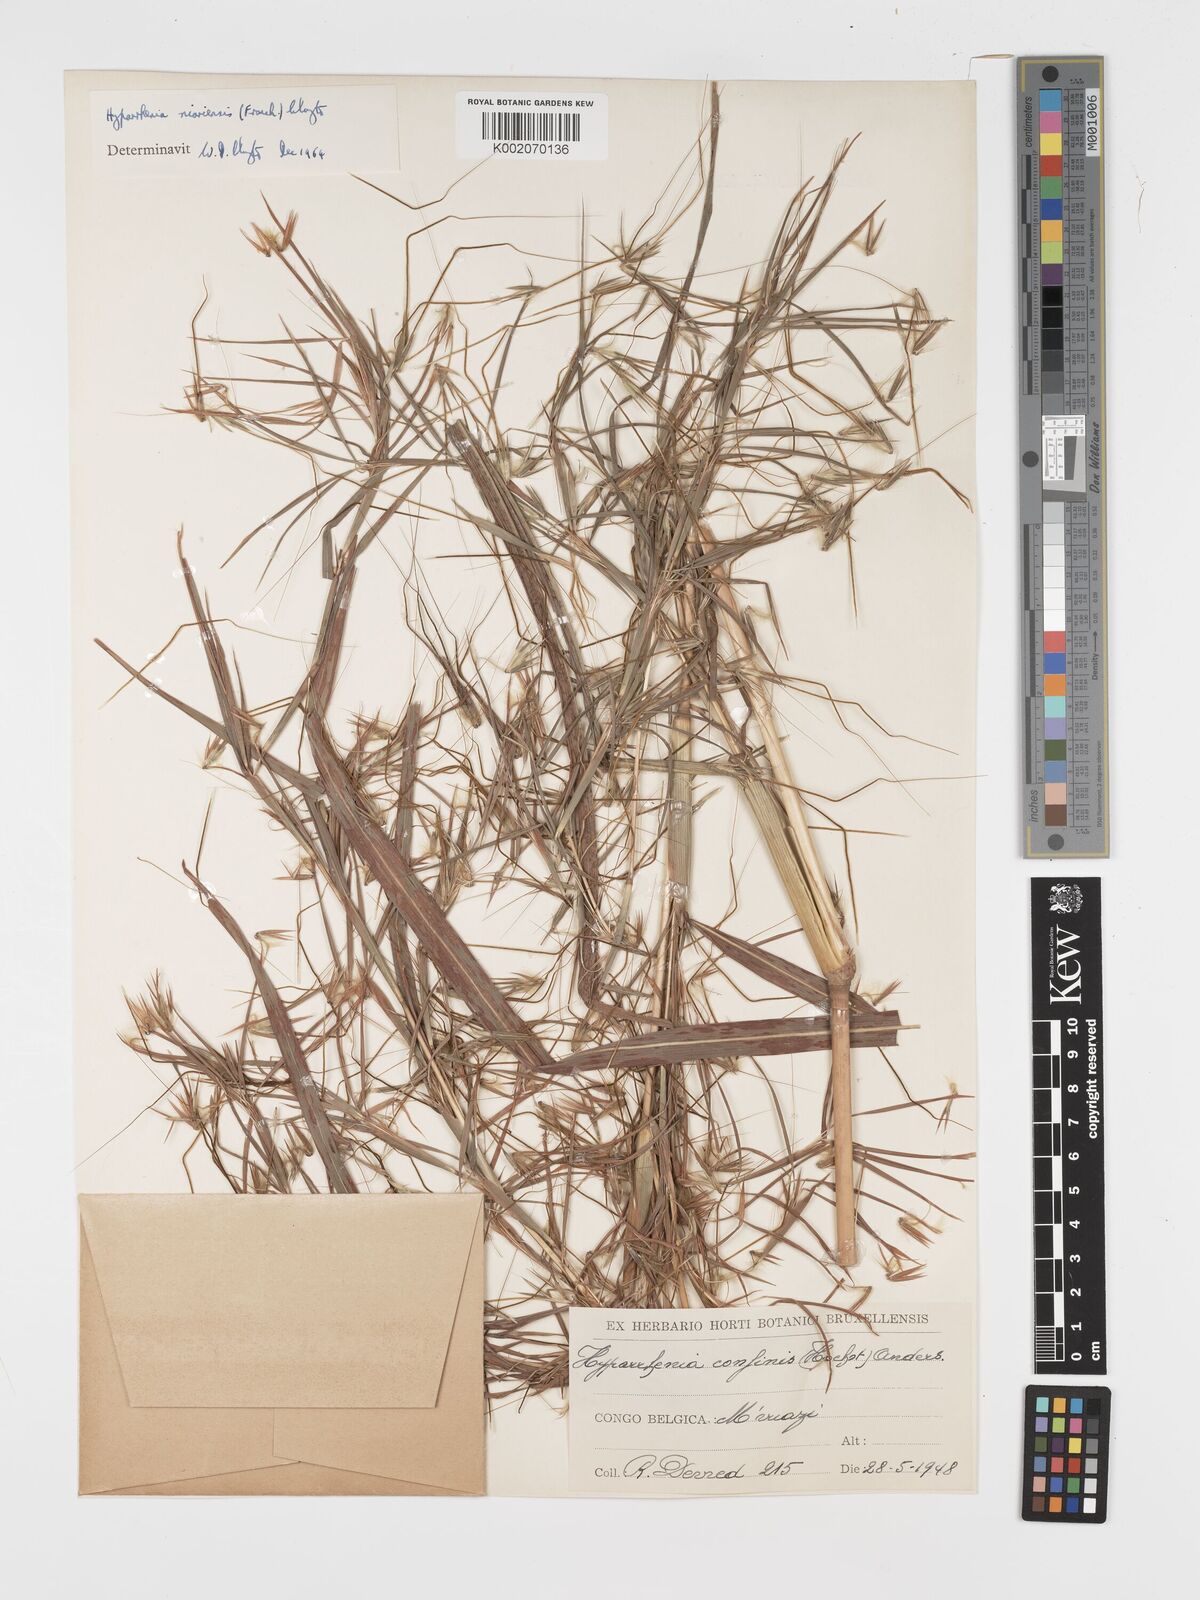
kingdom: Plantae
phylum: Tracheophyta
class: Liliopsida
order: Poales
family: Poaceae
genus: Hyparrhenia
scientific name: Hyparrhenia niariensis
